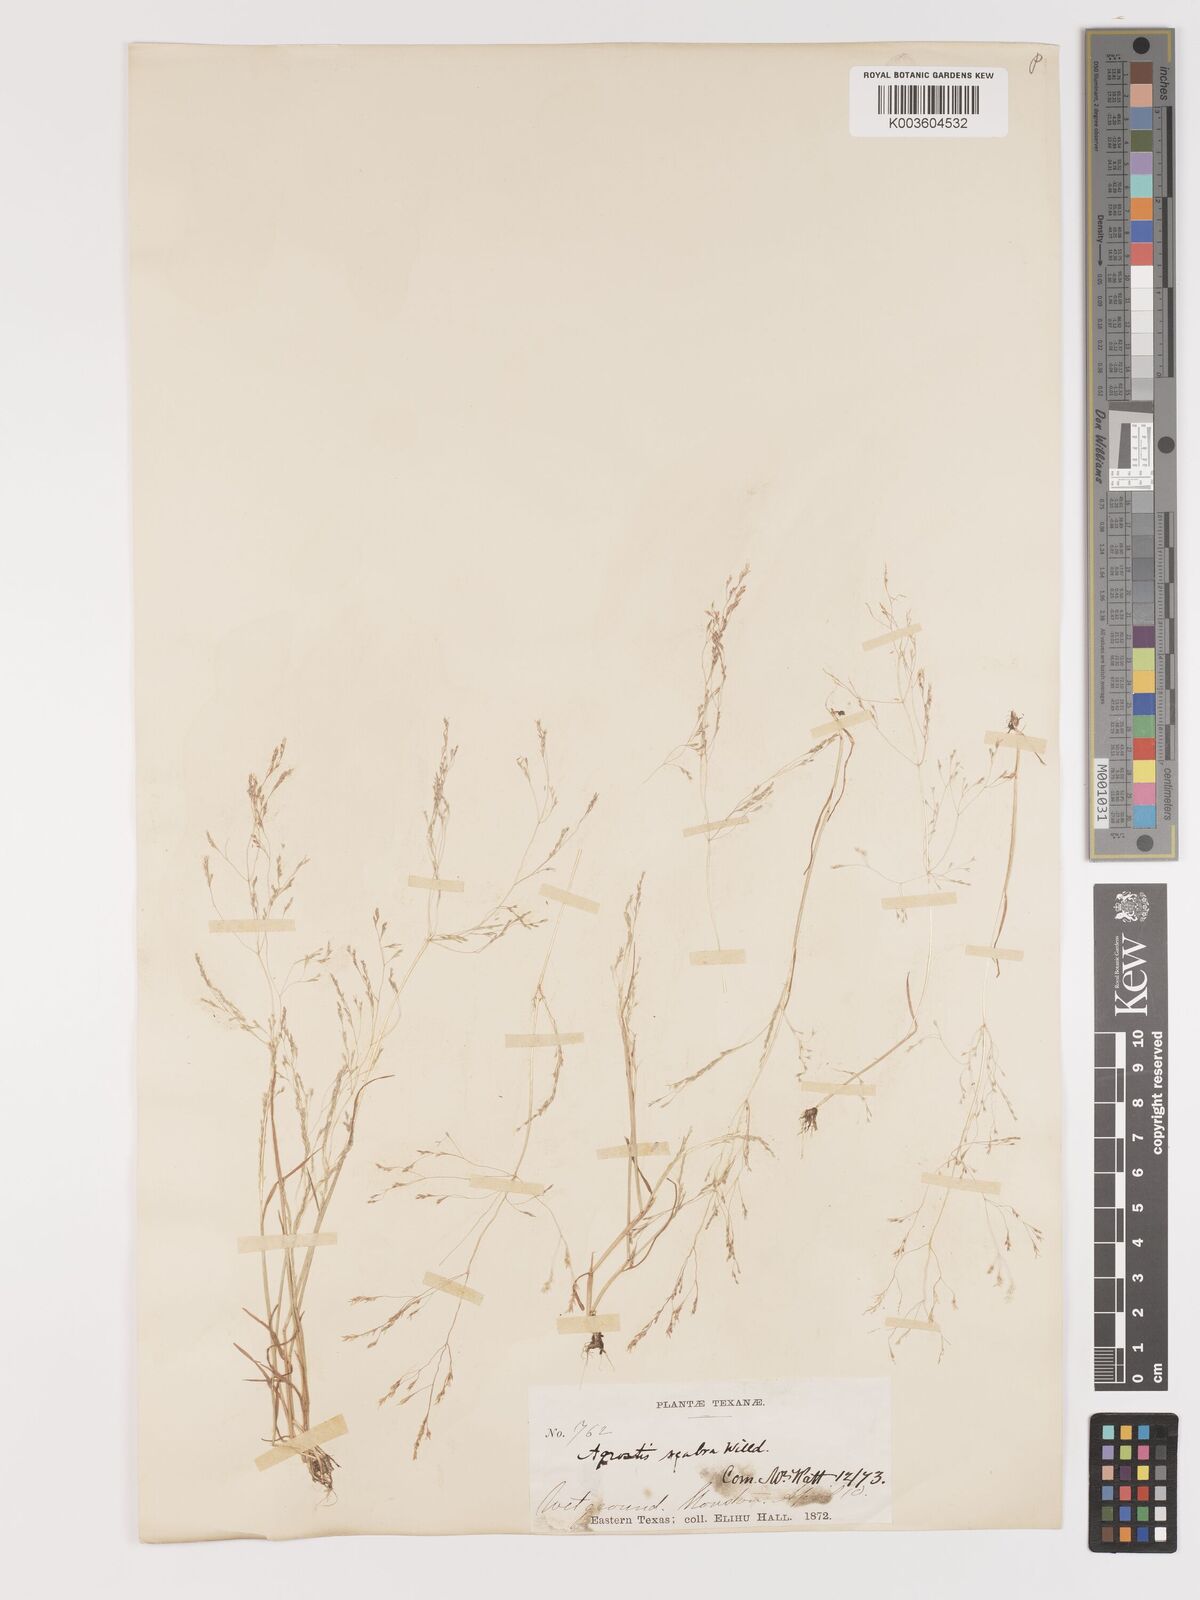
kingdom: Plantae
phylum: Tracheophyta
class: Liliopsida
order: Poales
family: Poaceae
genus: Agrostis
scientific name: Agrostis hyemalis
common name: Small bent
